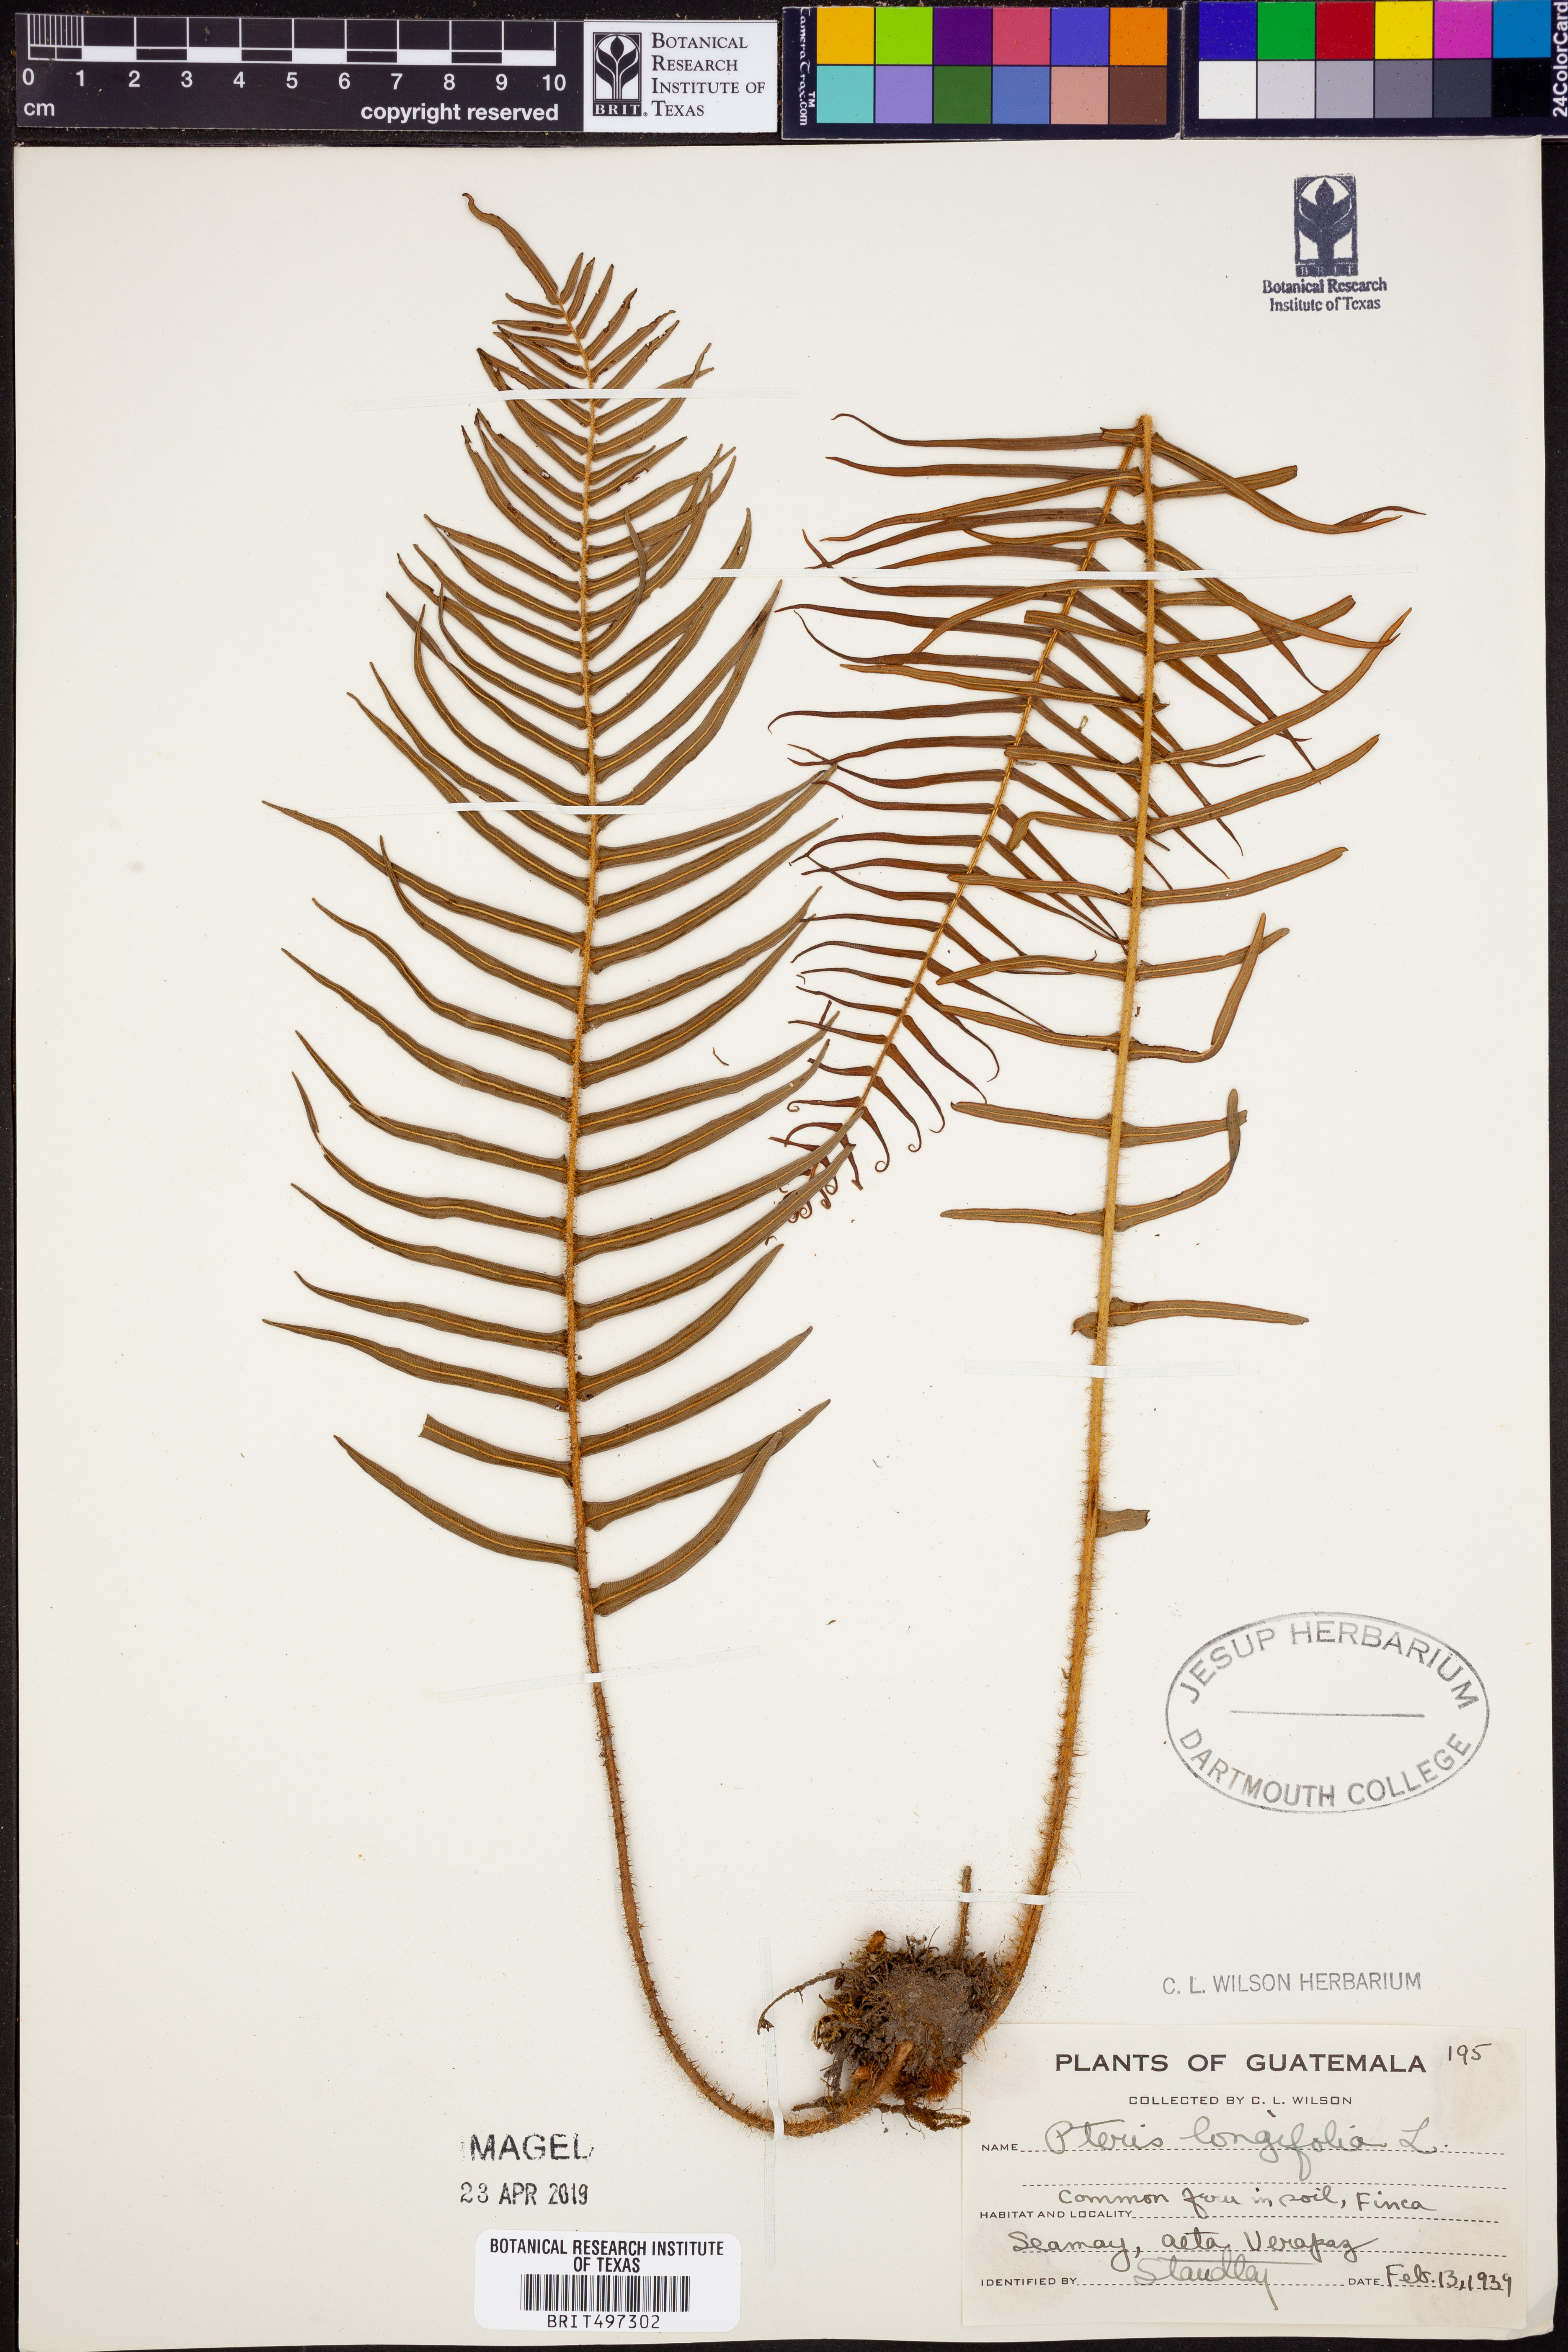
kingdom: Plantae
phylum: Tracheophyta
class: Polypodiopsida
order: Polypodiales
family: Pteridaceae
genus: Pteris
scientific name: Pteris longifolia
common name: Longleaf brake
